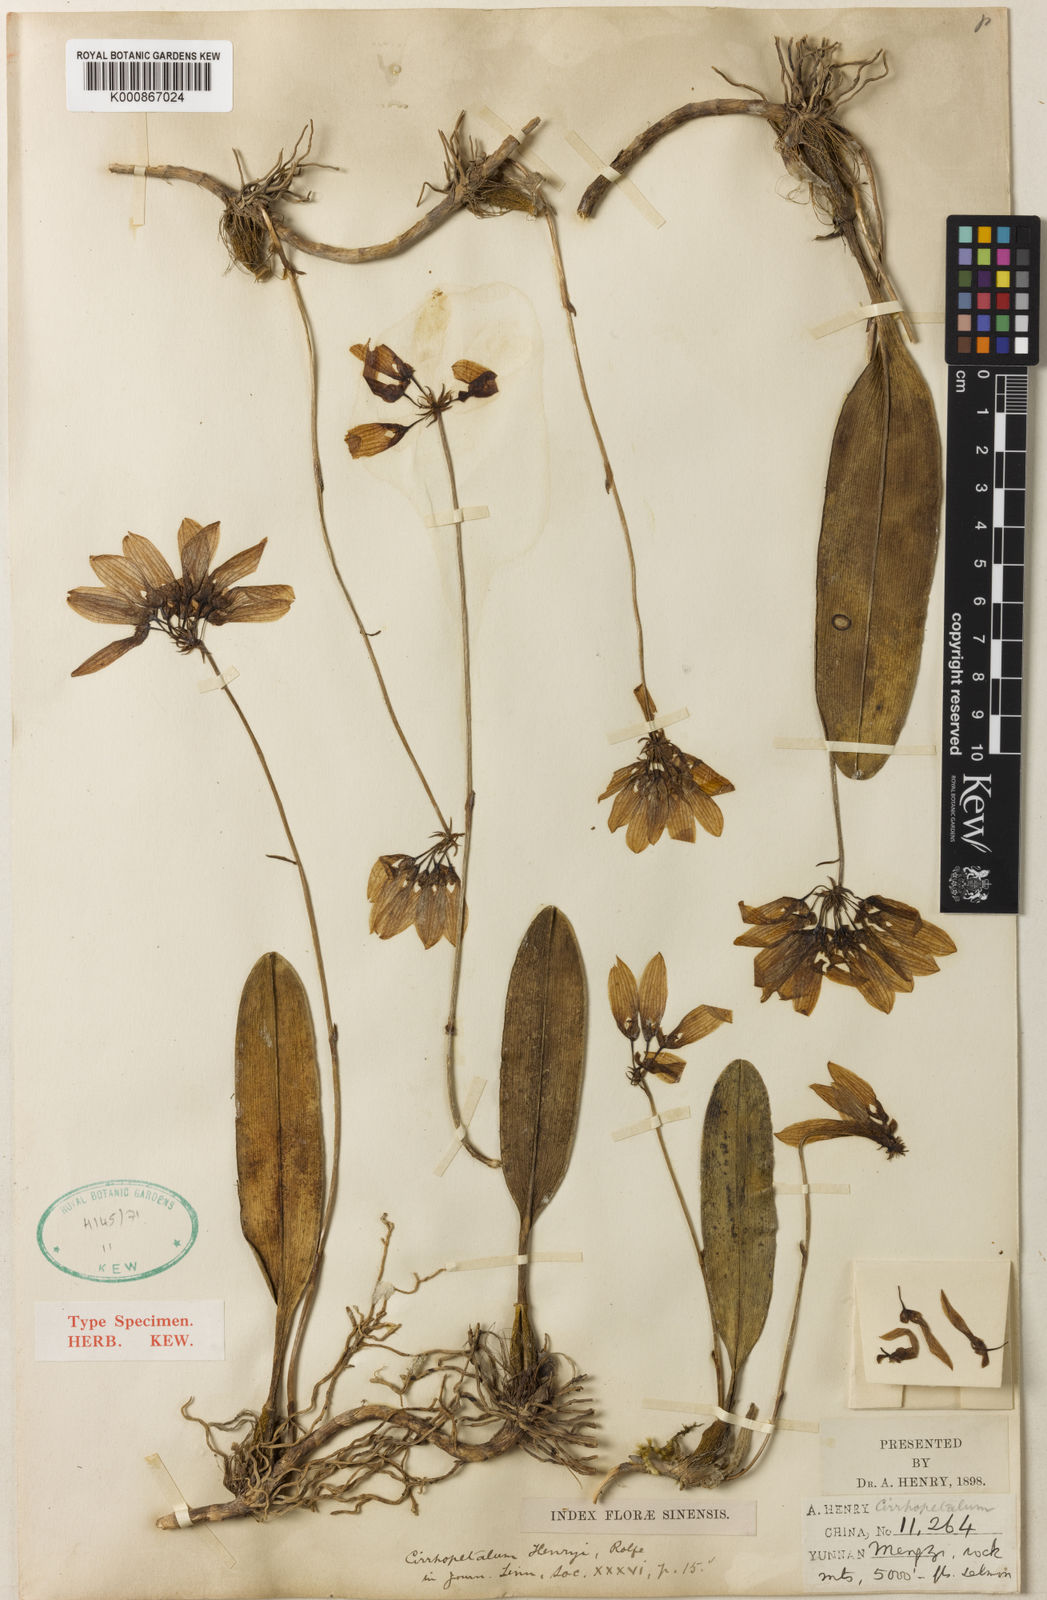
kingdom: Plantae
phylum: Tracheophyta
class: Liliopsida
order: Asparagales
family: Orchidaceae
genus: Bulbophyllum
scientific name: Bulbophyllum andersonii
